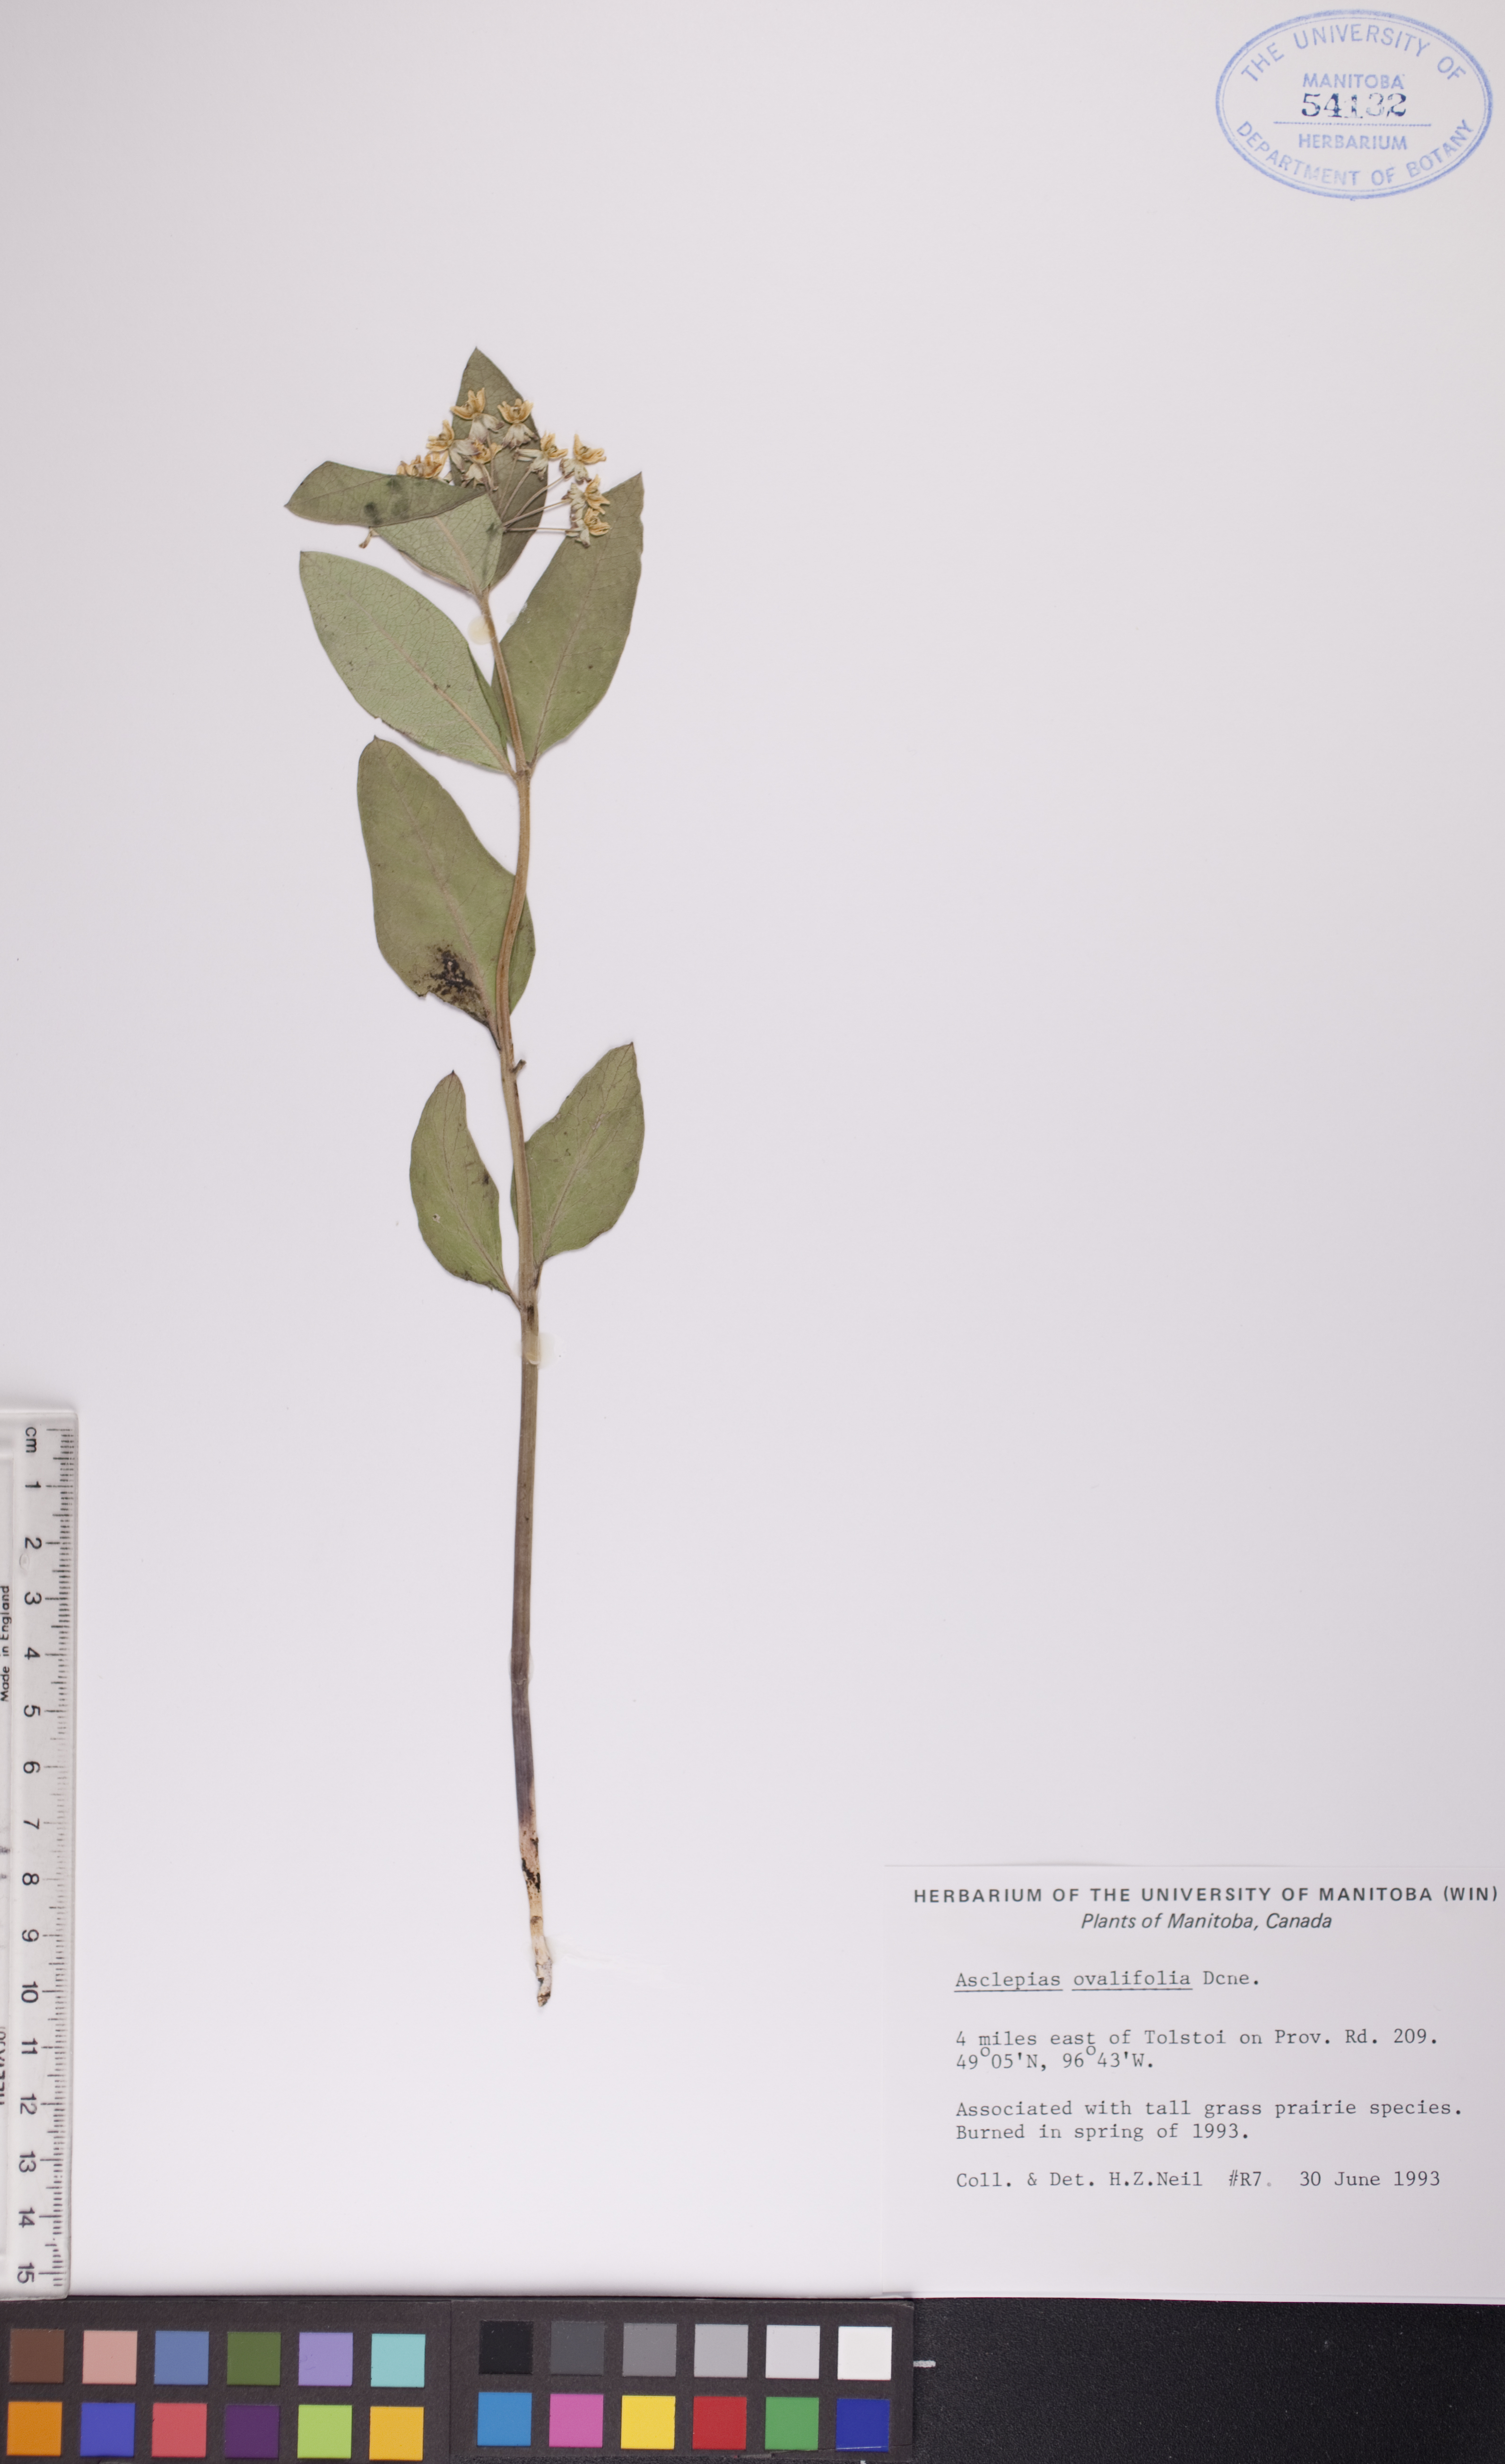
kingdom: Plantae
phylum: Tracheophyta
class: Magnoliopsida
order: Gentianales
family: Apocynaceae
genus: Asclepias
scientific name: Asclepias ovalifolia
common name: Dwarf milkweed
